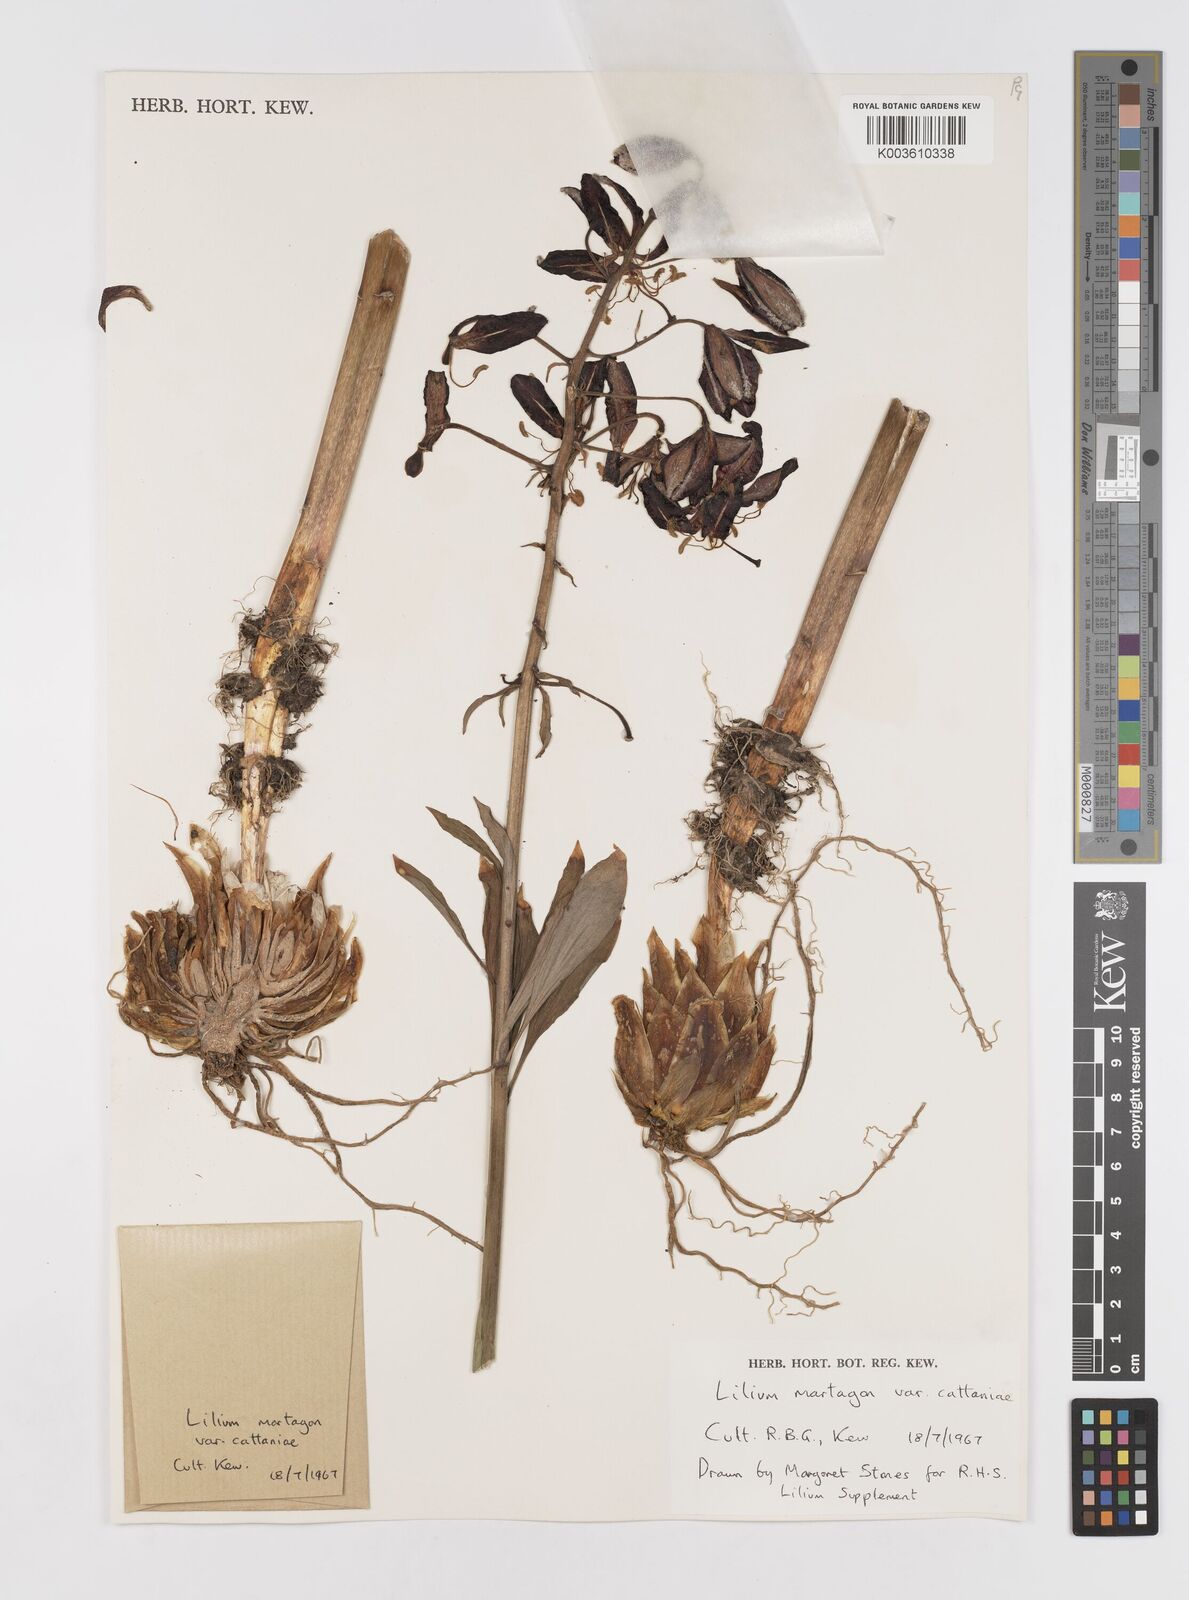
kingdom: Plantae
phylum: Tracheophyta
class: Liliopsida
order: Liliales
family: Liliaceae
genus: Lilium
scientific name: Lilium martagon
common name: Martagon lily
